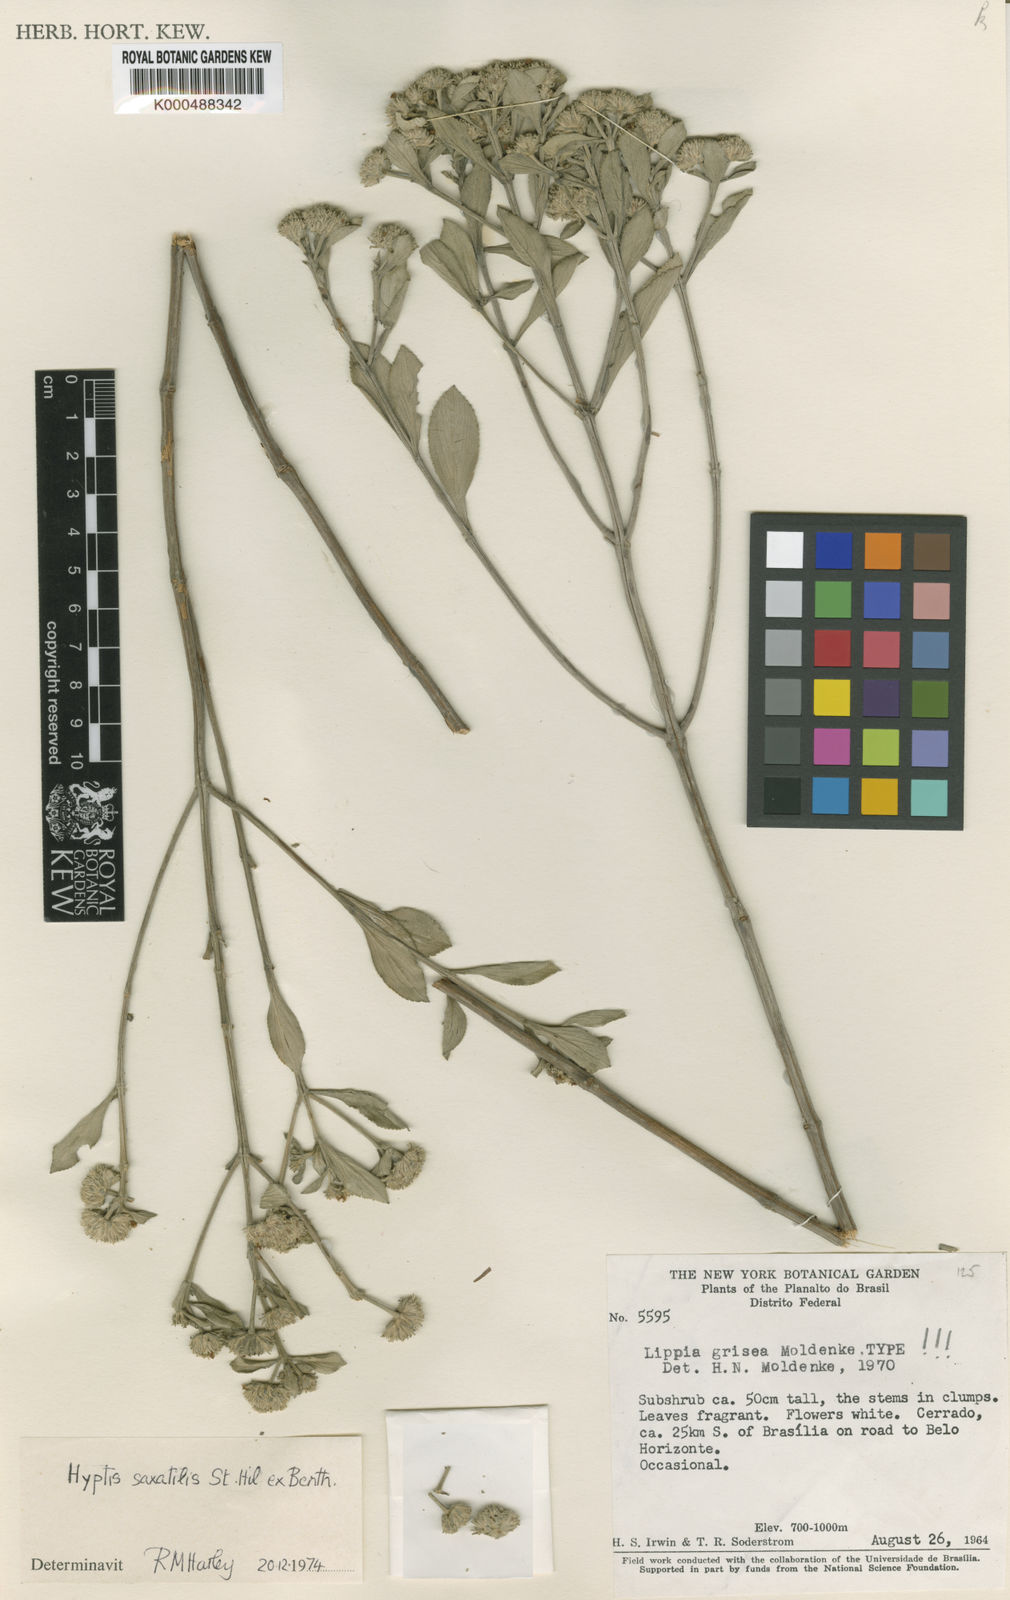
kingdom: Plantae
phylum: Tracheophyta
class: Magnoliopsida
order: Lamiales
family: Lamiaceae
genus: Hyptis
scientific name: Hyptis saxatilis
